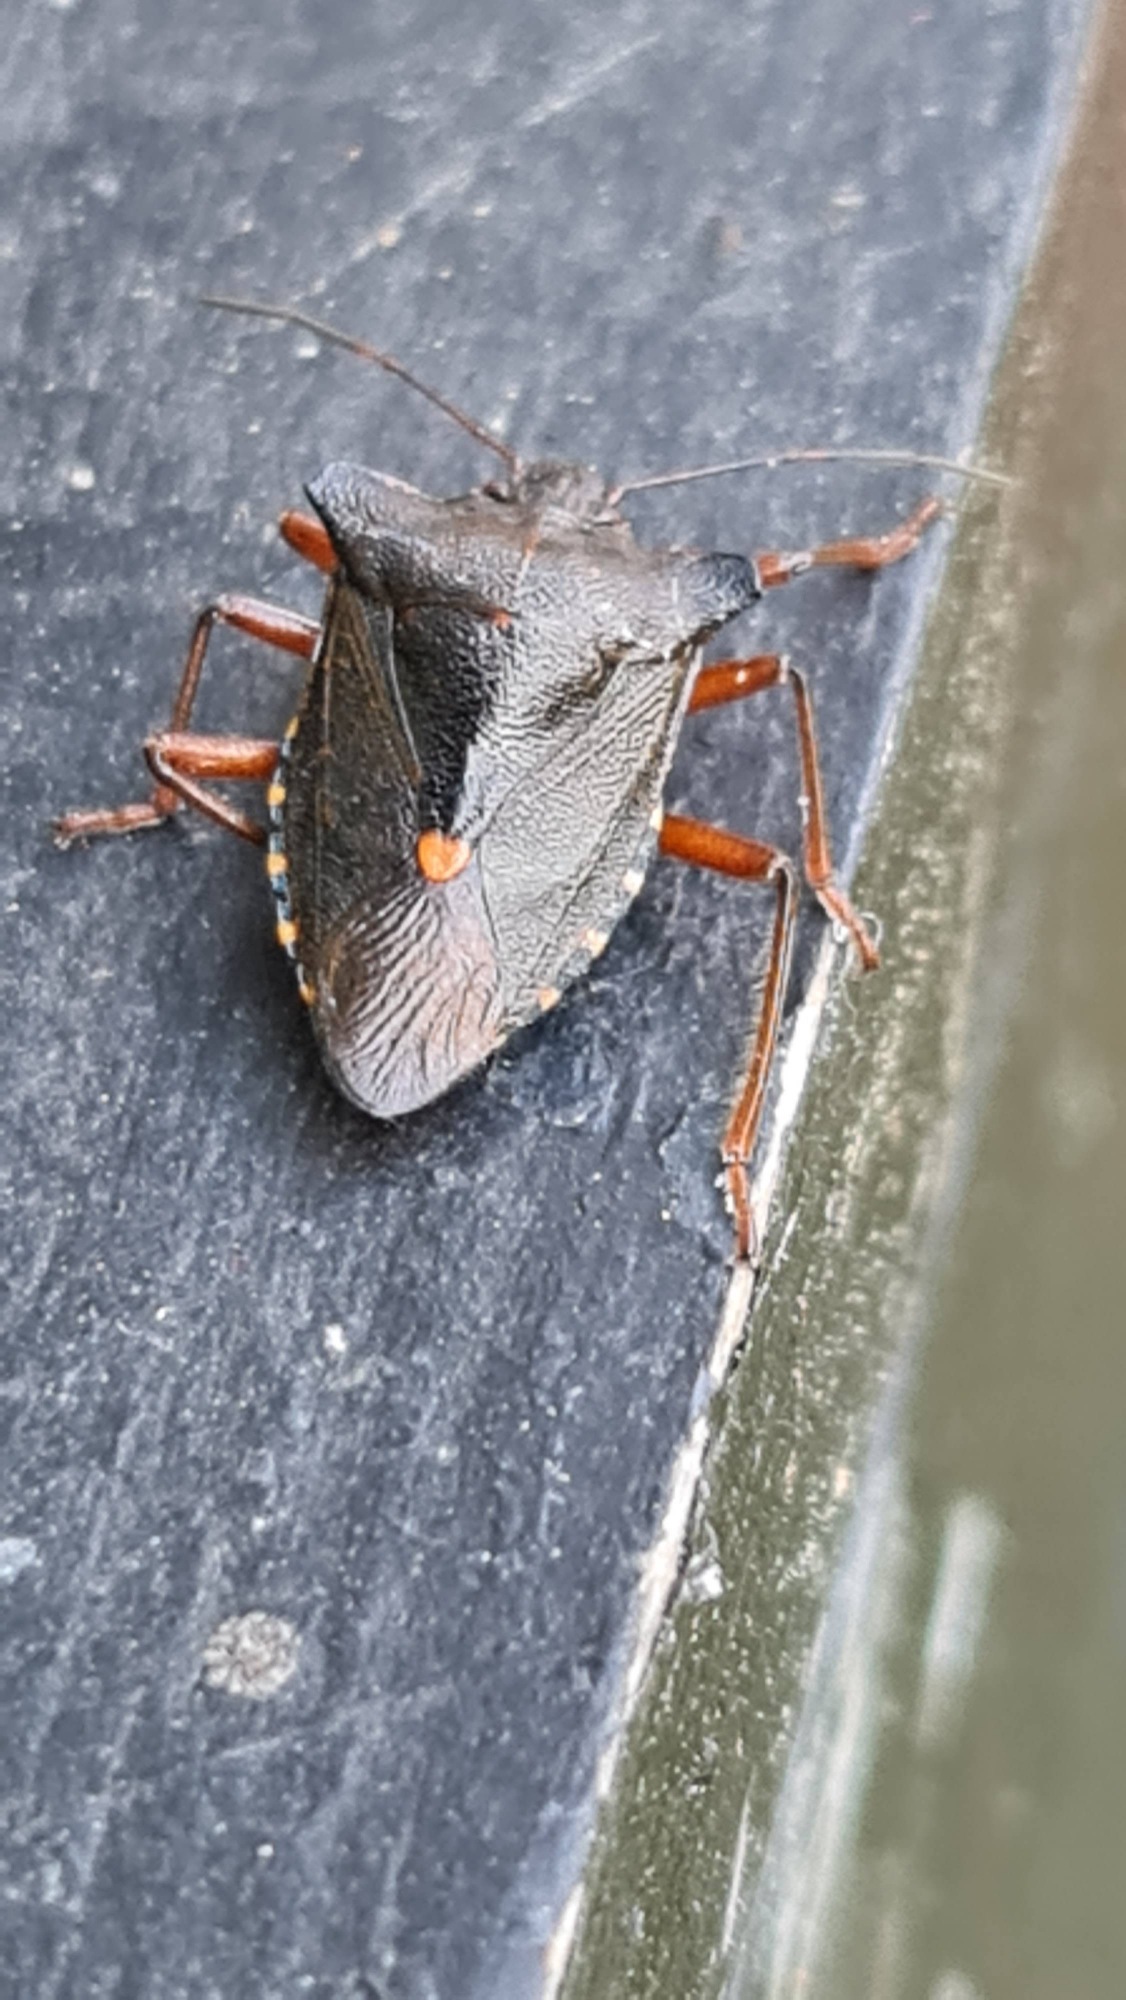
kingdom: Animalia
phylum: Arthropoda
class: Insecta
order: Hemiptera
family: Pentatomidae
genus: Pentatoma
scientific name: Pentatoma rufipes
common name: Rødbenet bredtæge
